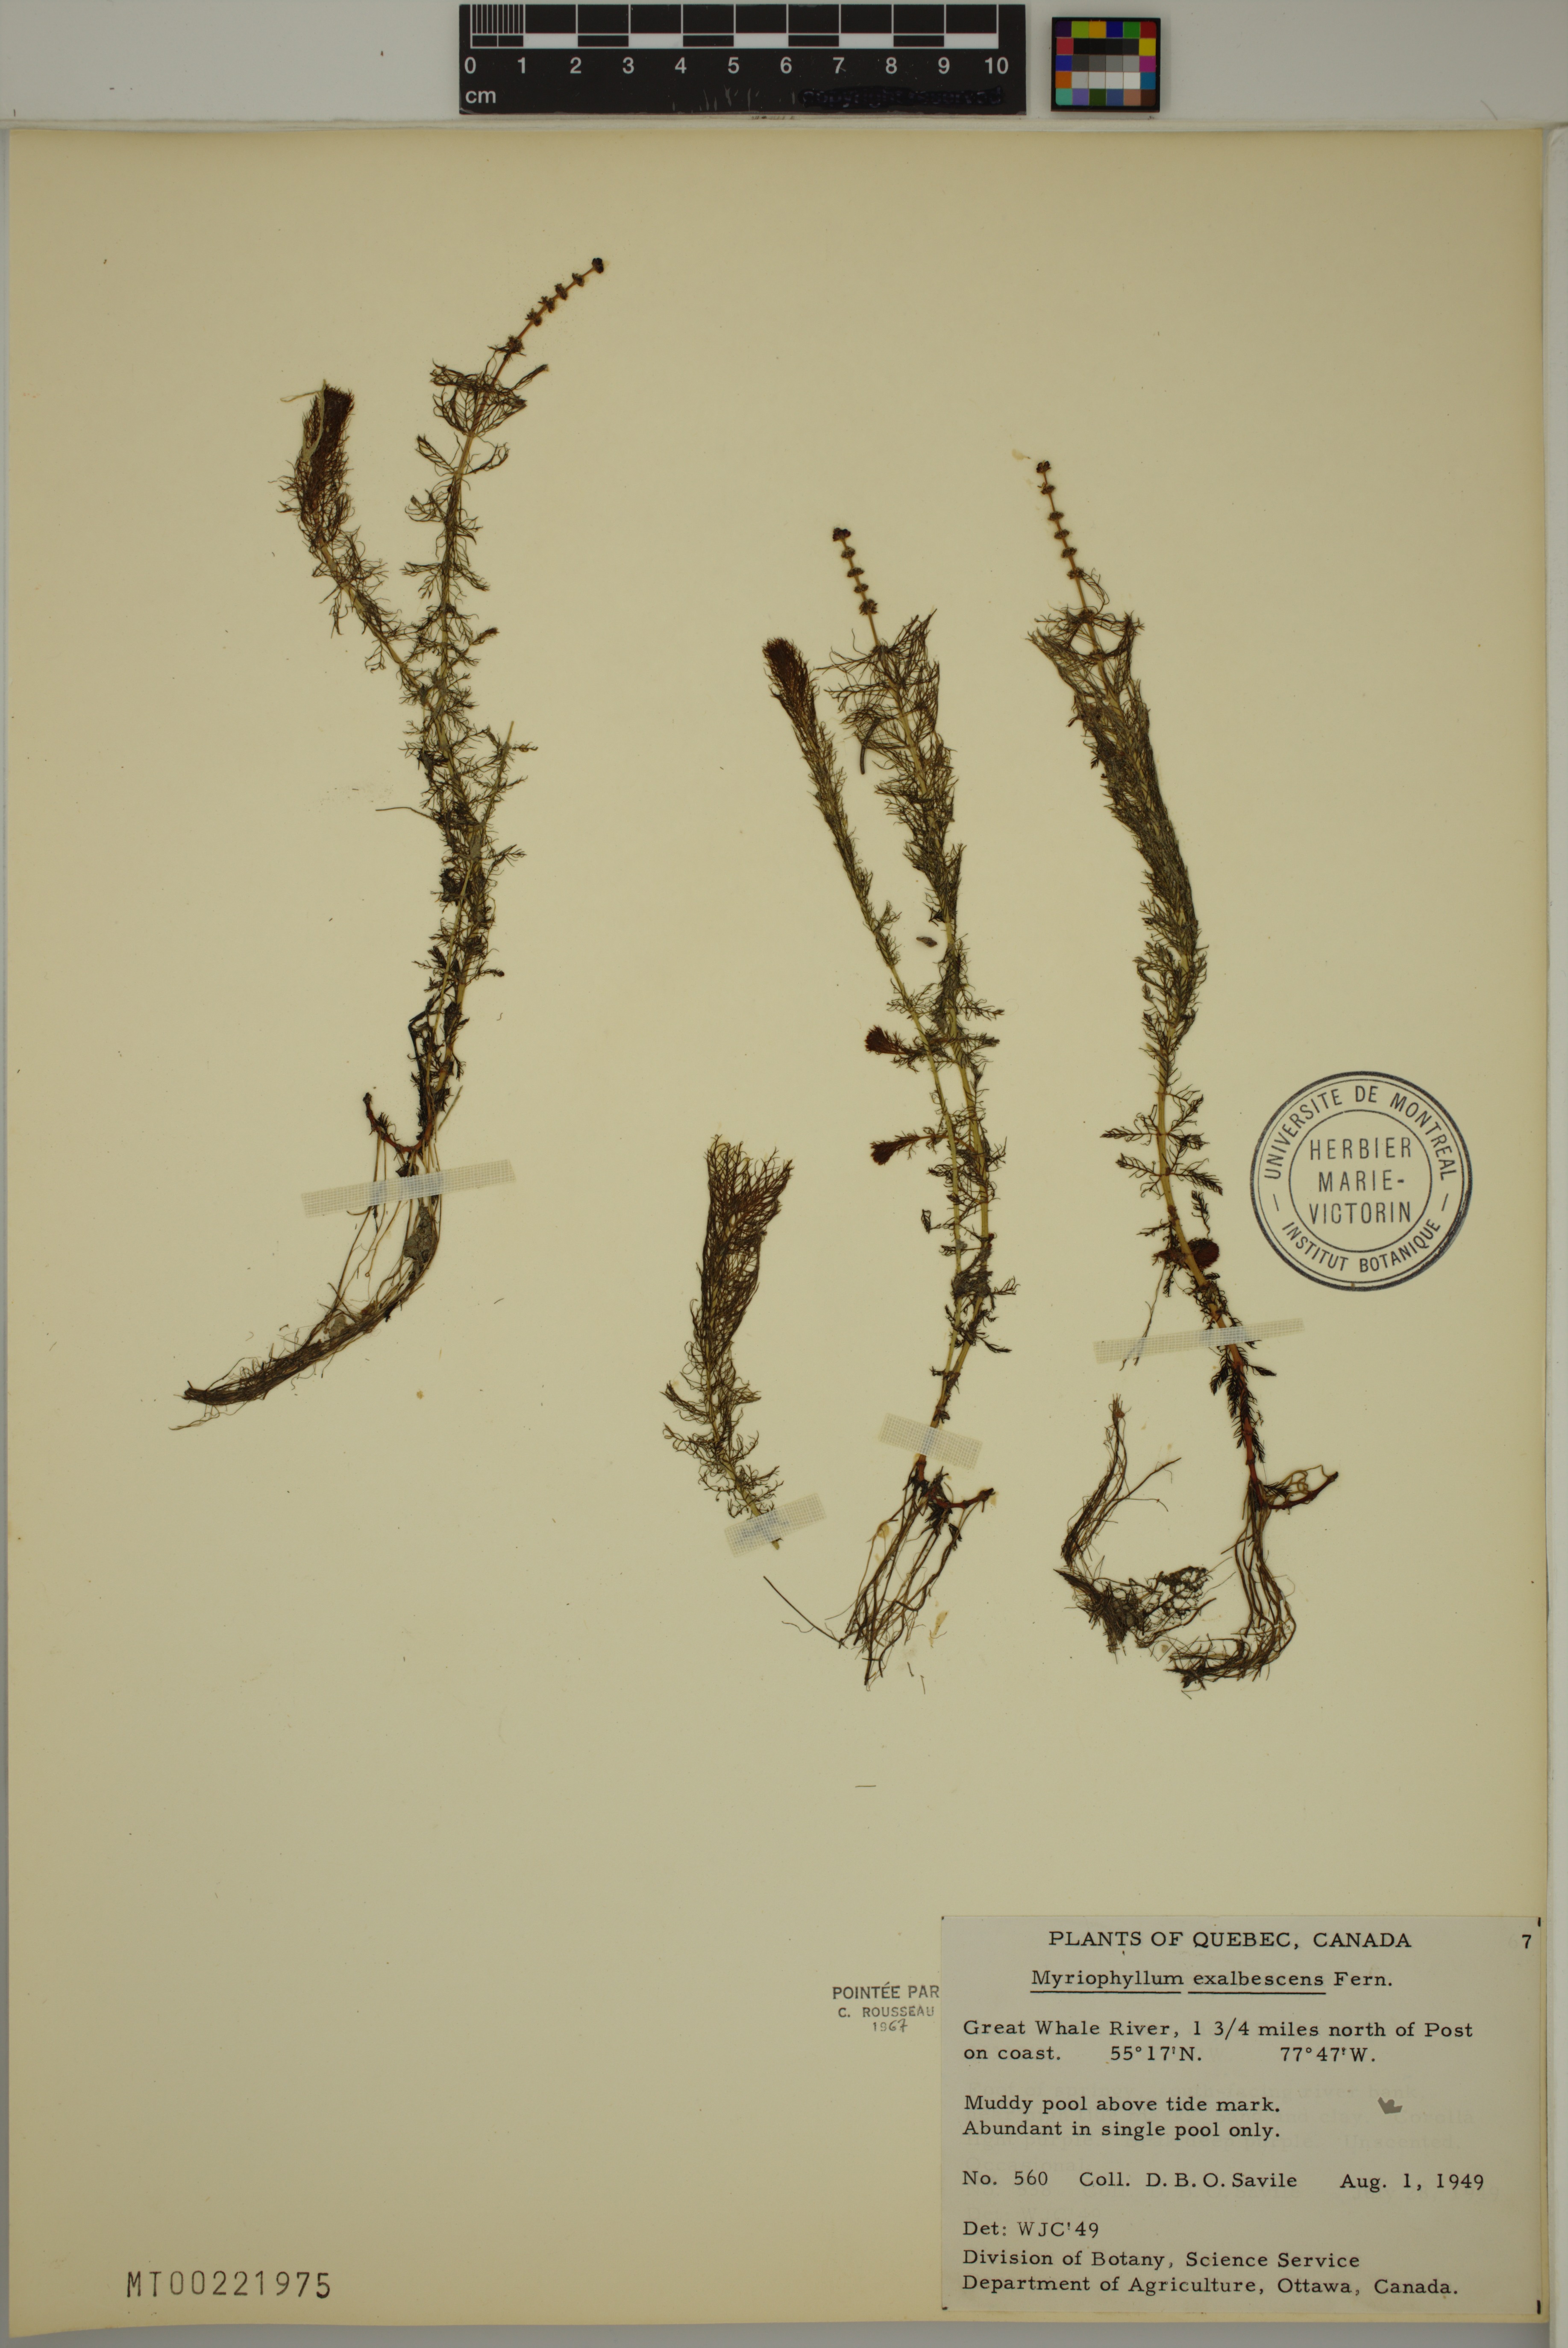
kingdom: Plantae
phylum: Tracheophyta
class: Magnoliopsida
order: Saxifragales
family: Haloragaceae
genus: Myriophyllum
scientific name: Myriophyllum sibiricum
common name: Siberian water-milfoil
